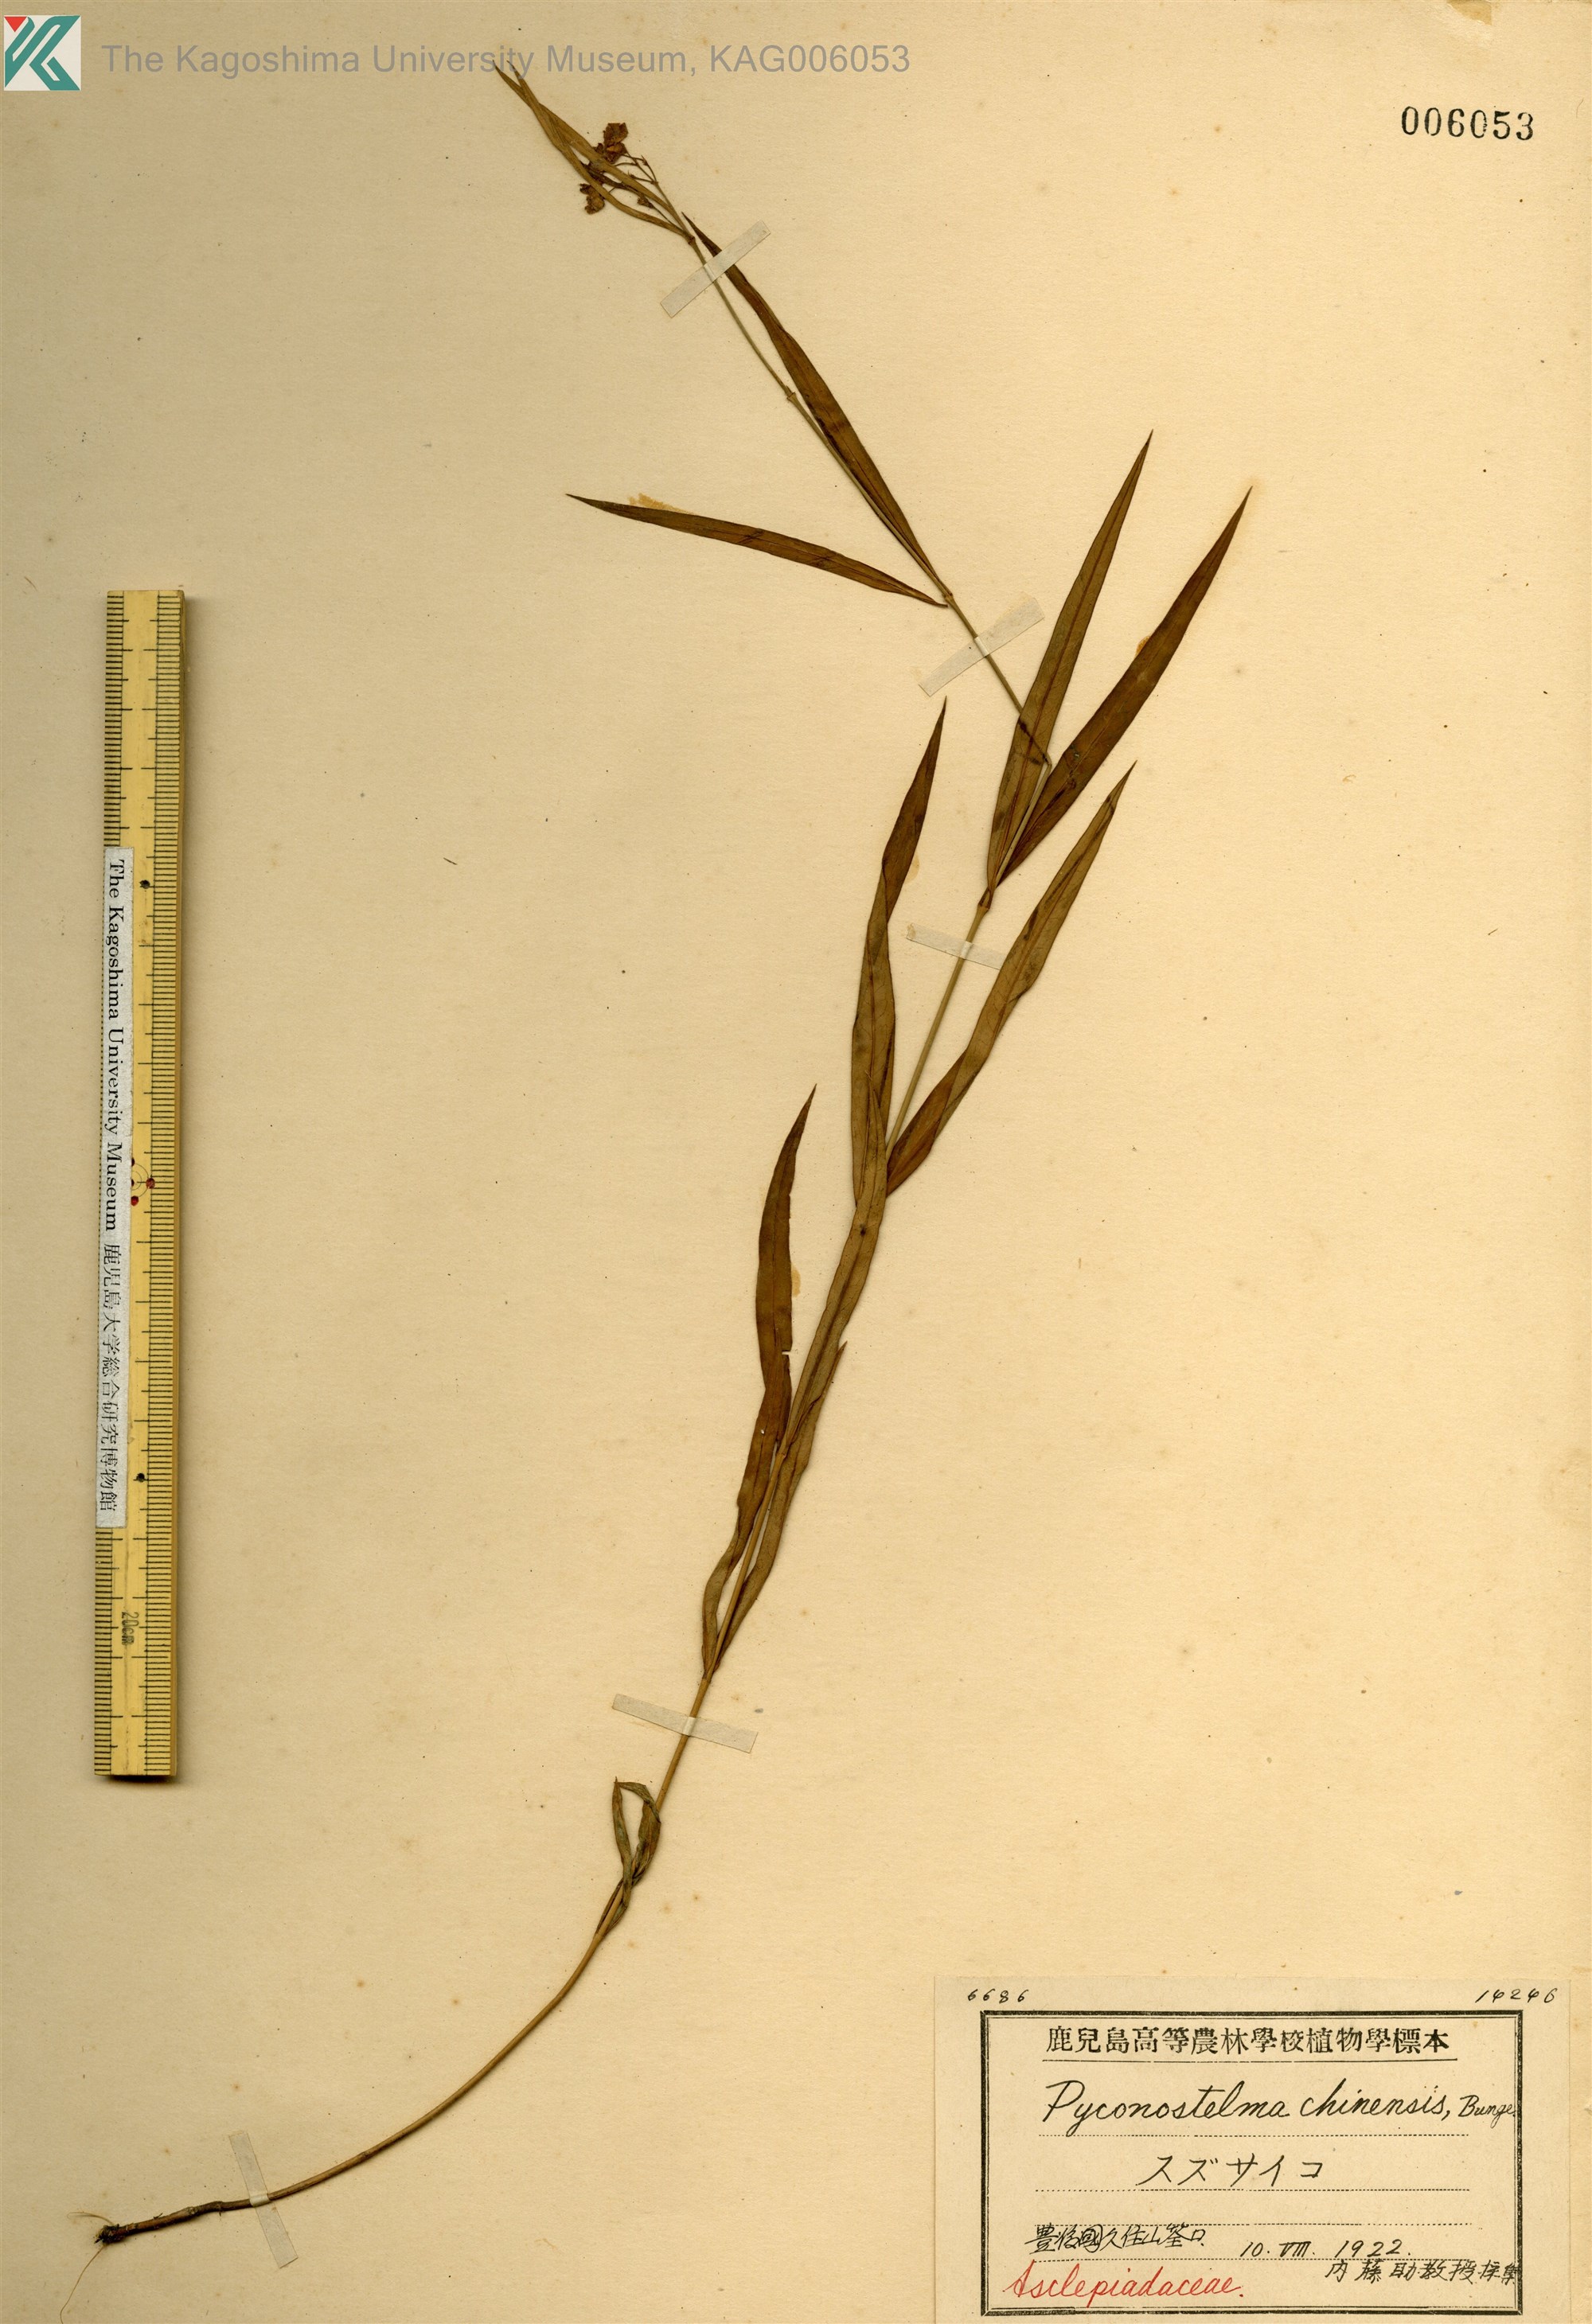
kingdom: Plantae
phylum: Tracheophyta
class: Magnoliopsida
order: Gentianales
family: Apocynaceae
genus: Vincetoxicum
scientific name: Vincetoxicum mukdenense
